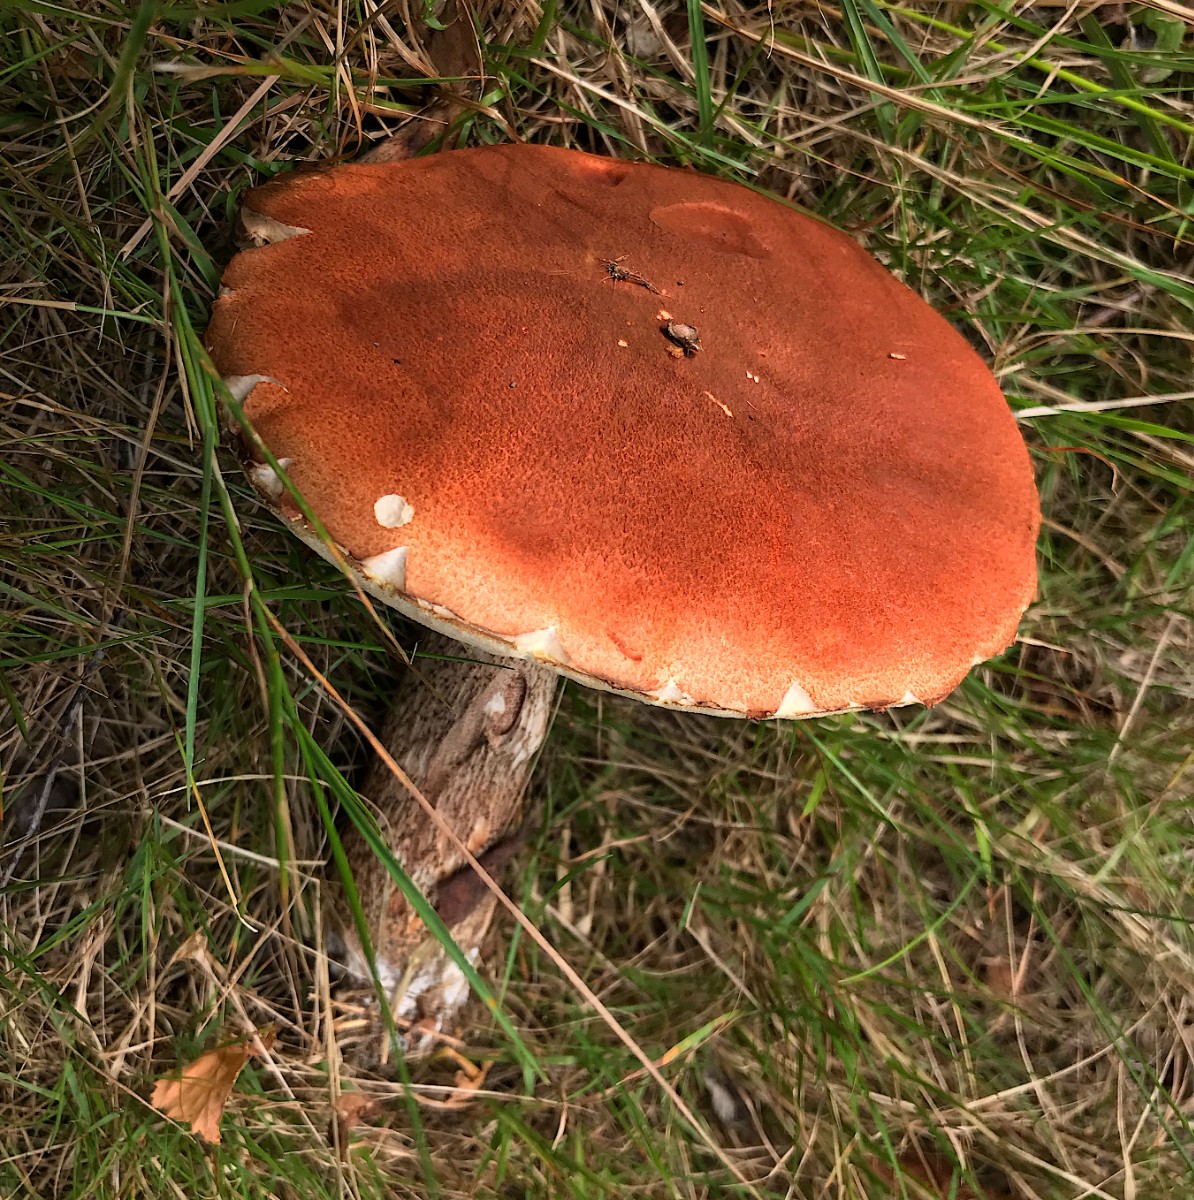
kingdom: Fungi
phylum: Basidiomycota
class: Agaricomycetes
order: Boletales
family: Boletaceae
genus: Leccinum
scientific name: Leccinum aurantiacum
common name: rustrød skælrørhat
